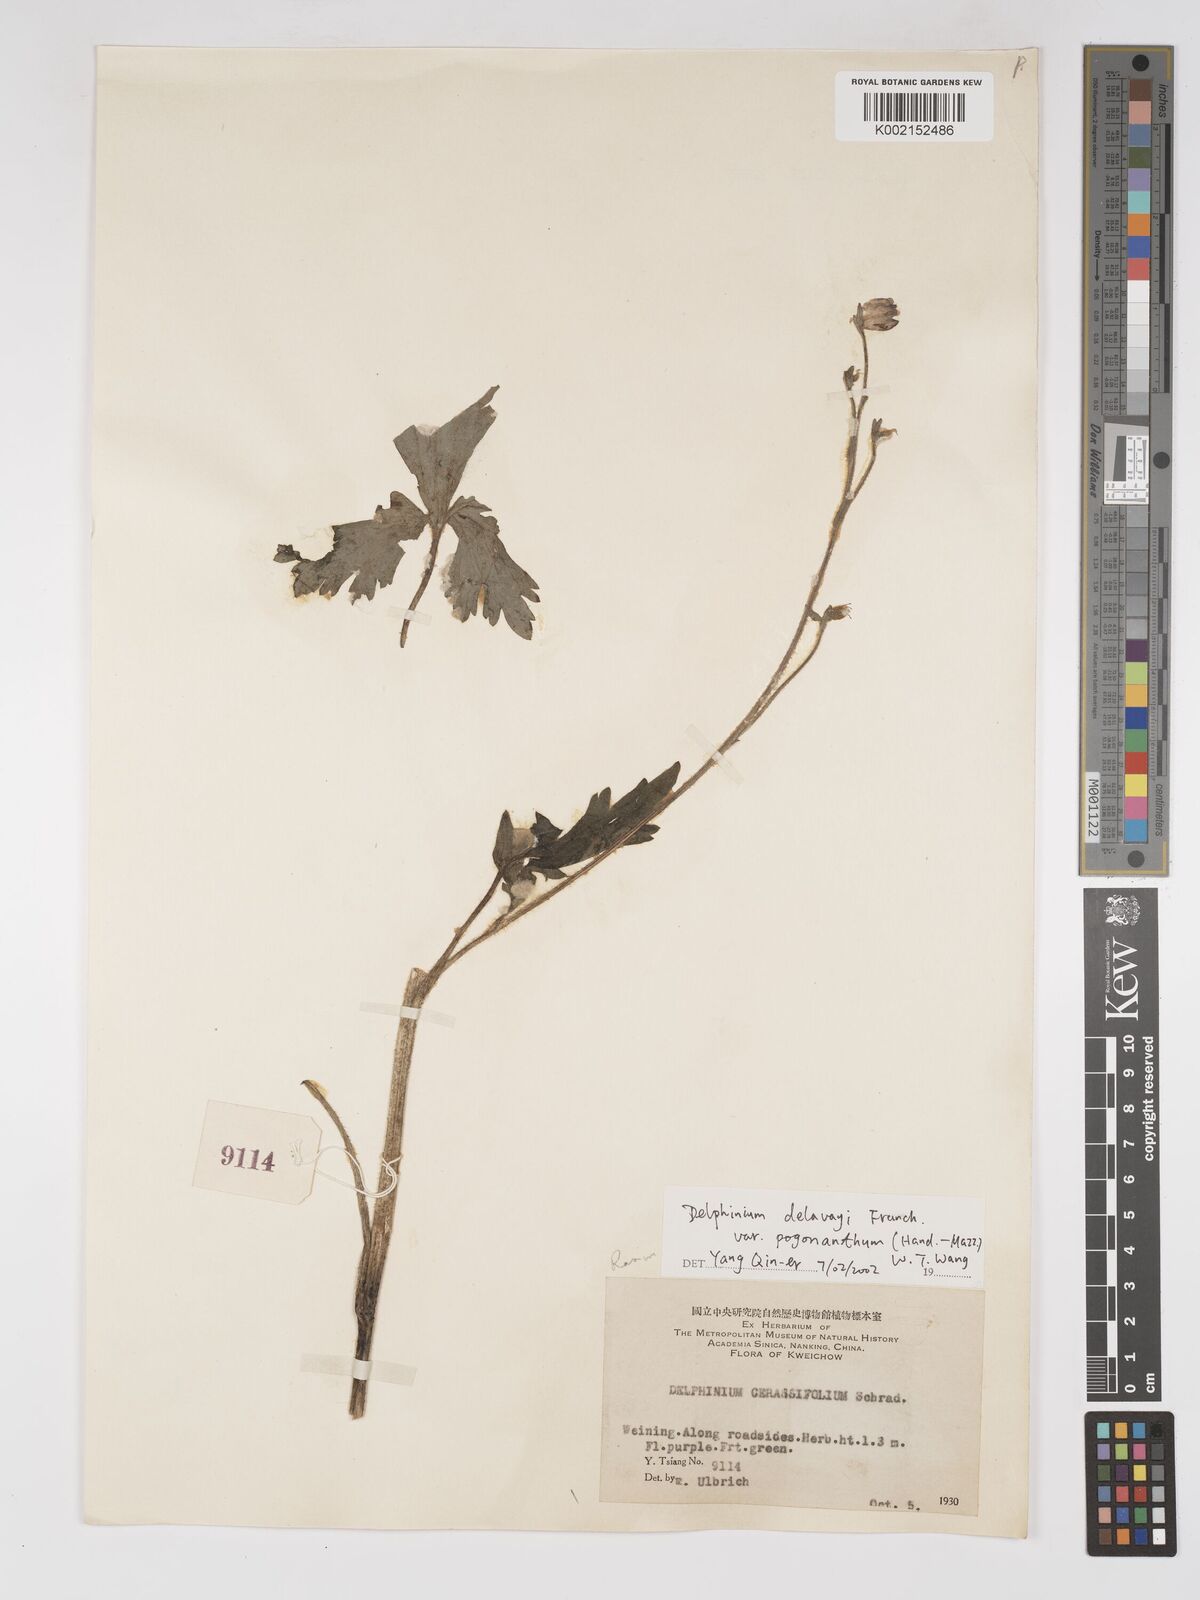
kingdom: Plantae
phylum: Tracheophyta
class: Magnoliopsida
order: Ranunculales
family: Ranunculaceae
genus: Delphinium
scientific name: Delphinium delavayi
